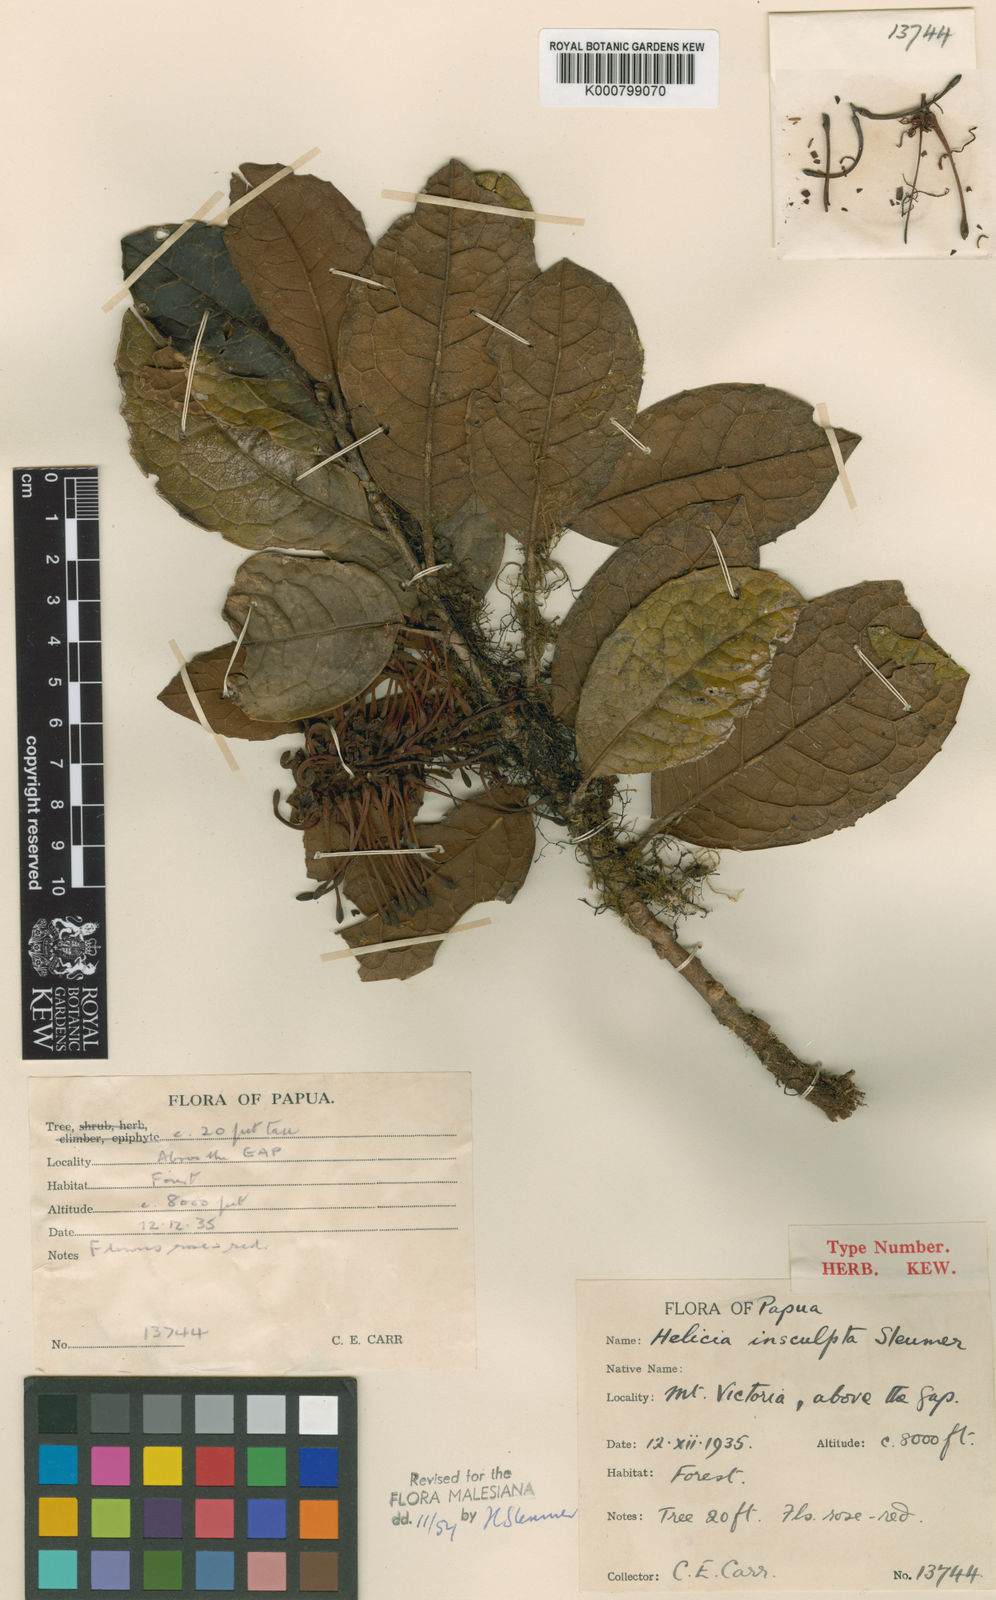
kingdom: Plantae
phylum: Tracheophyta
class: Magnoliopsida
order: Proteales
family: Proteaceae
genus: Helicia
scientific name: Helicia insculpta
